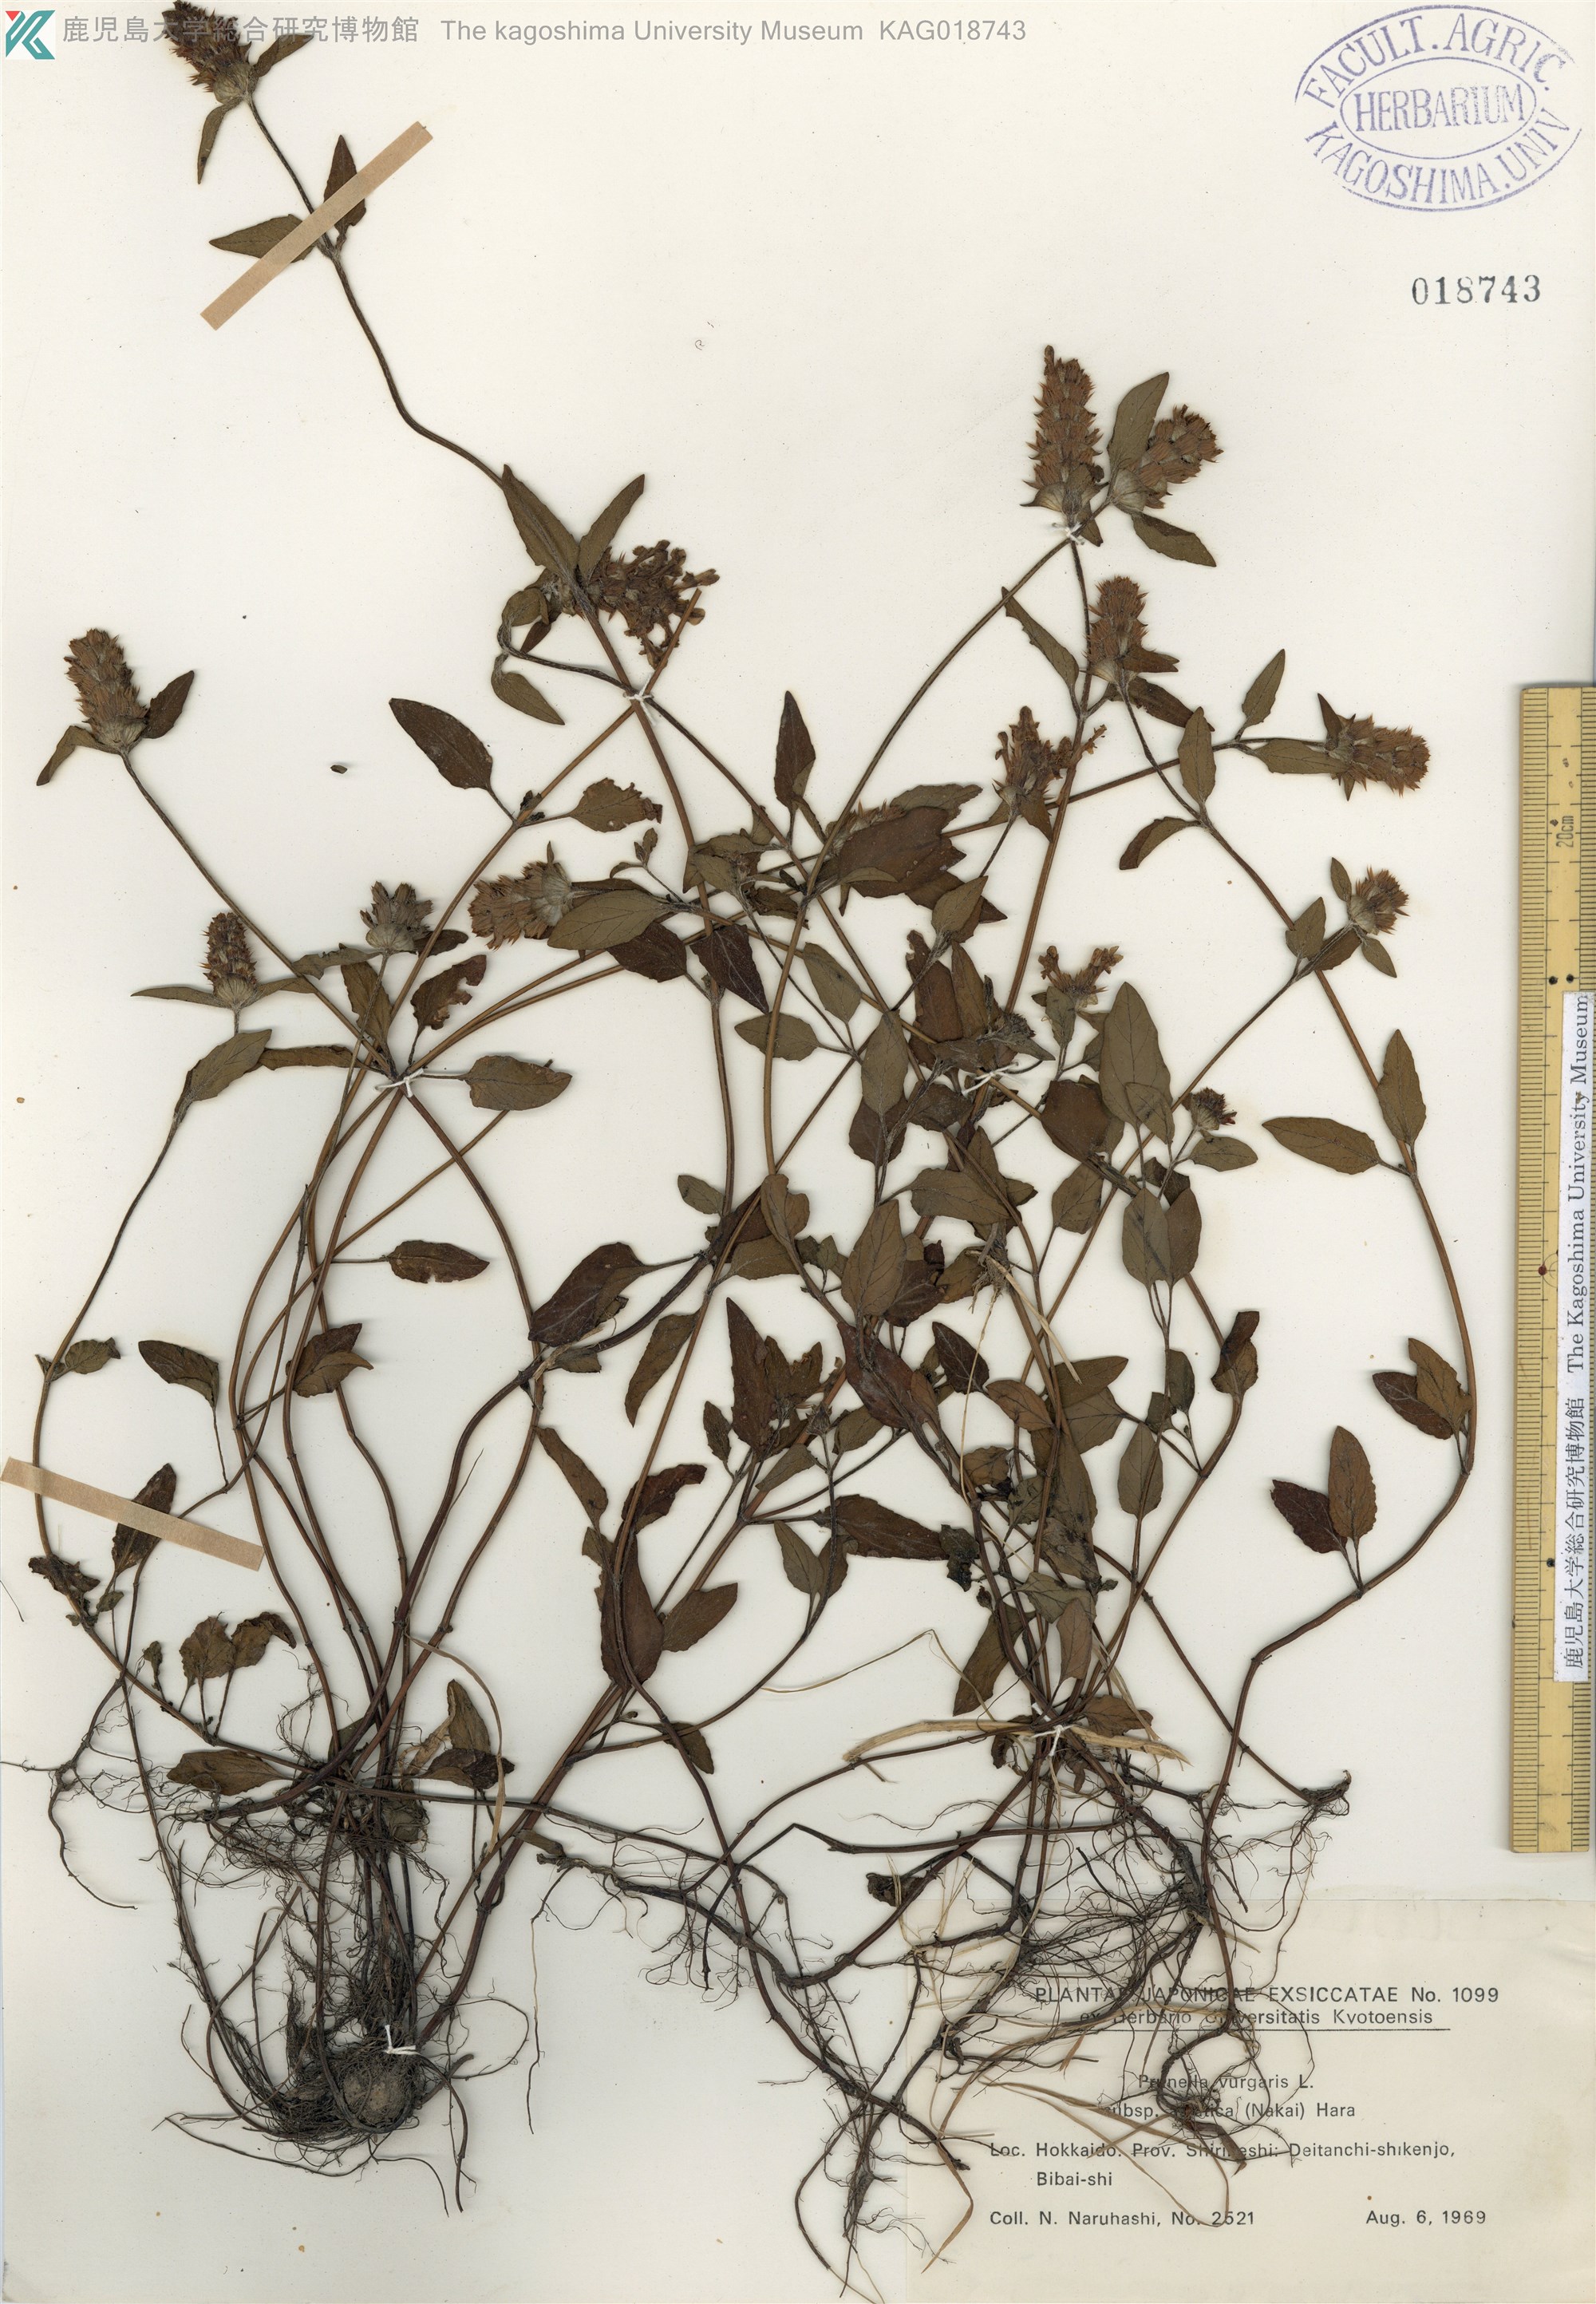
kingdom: Plantae
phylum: Tracheophyta
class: Magnoliopsida
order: Lamiales
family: Lamiaceae
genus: Prunella
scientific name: Prunella vulgaris
